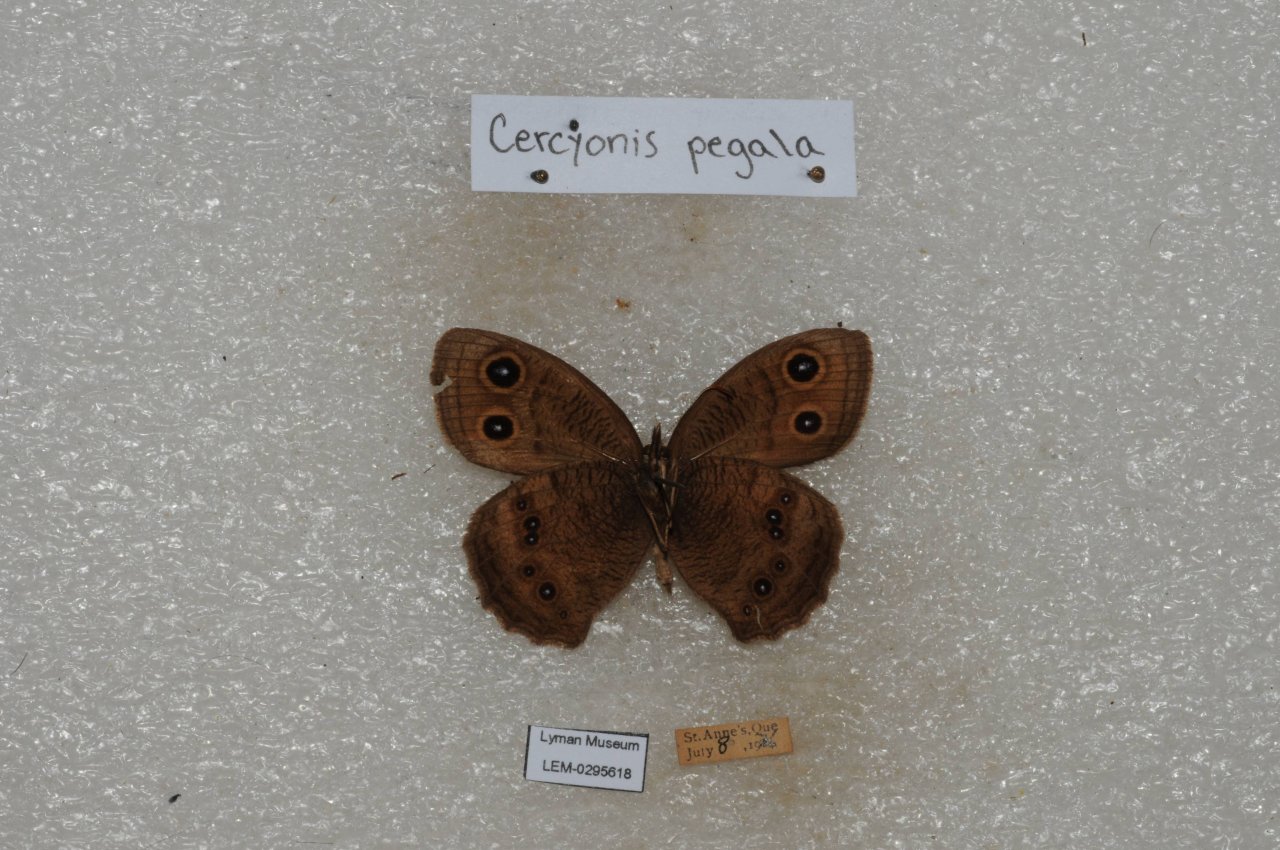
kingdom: Animalia
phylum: Arthropoda
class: Insecta
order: Lepidoptera
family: Nymphalidae
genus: Cercyonis
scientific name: Cercyonis pegala
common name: Common Wood-Nymph
